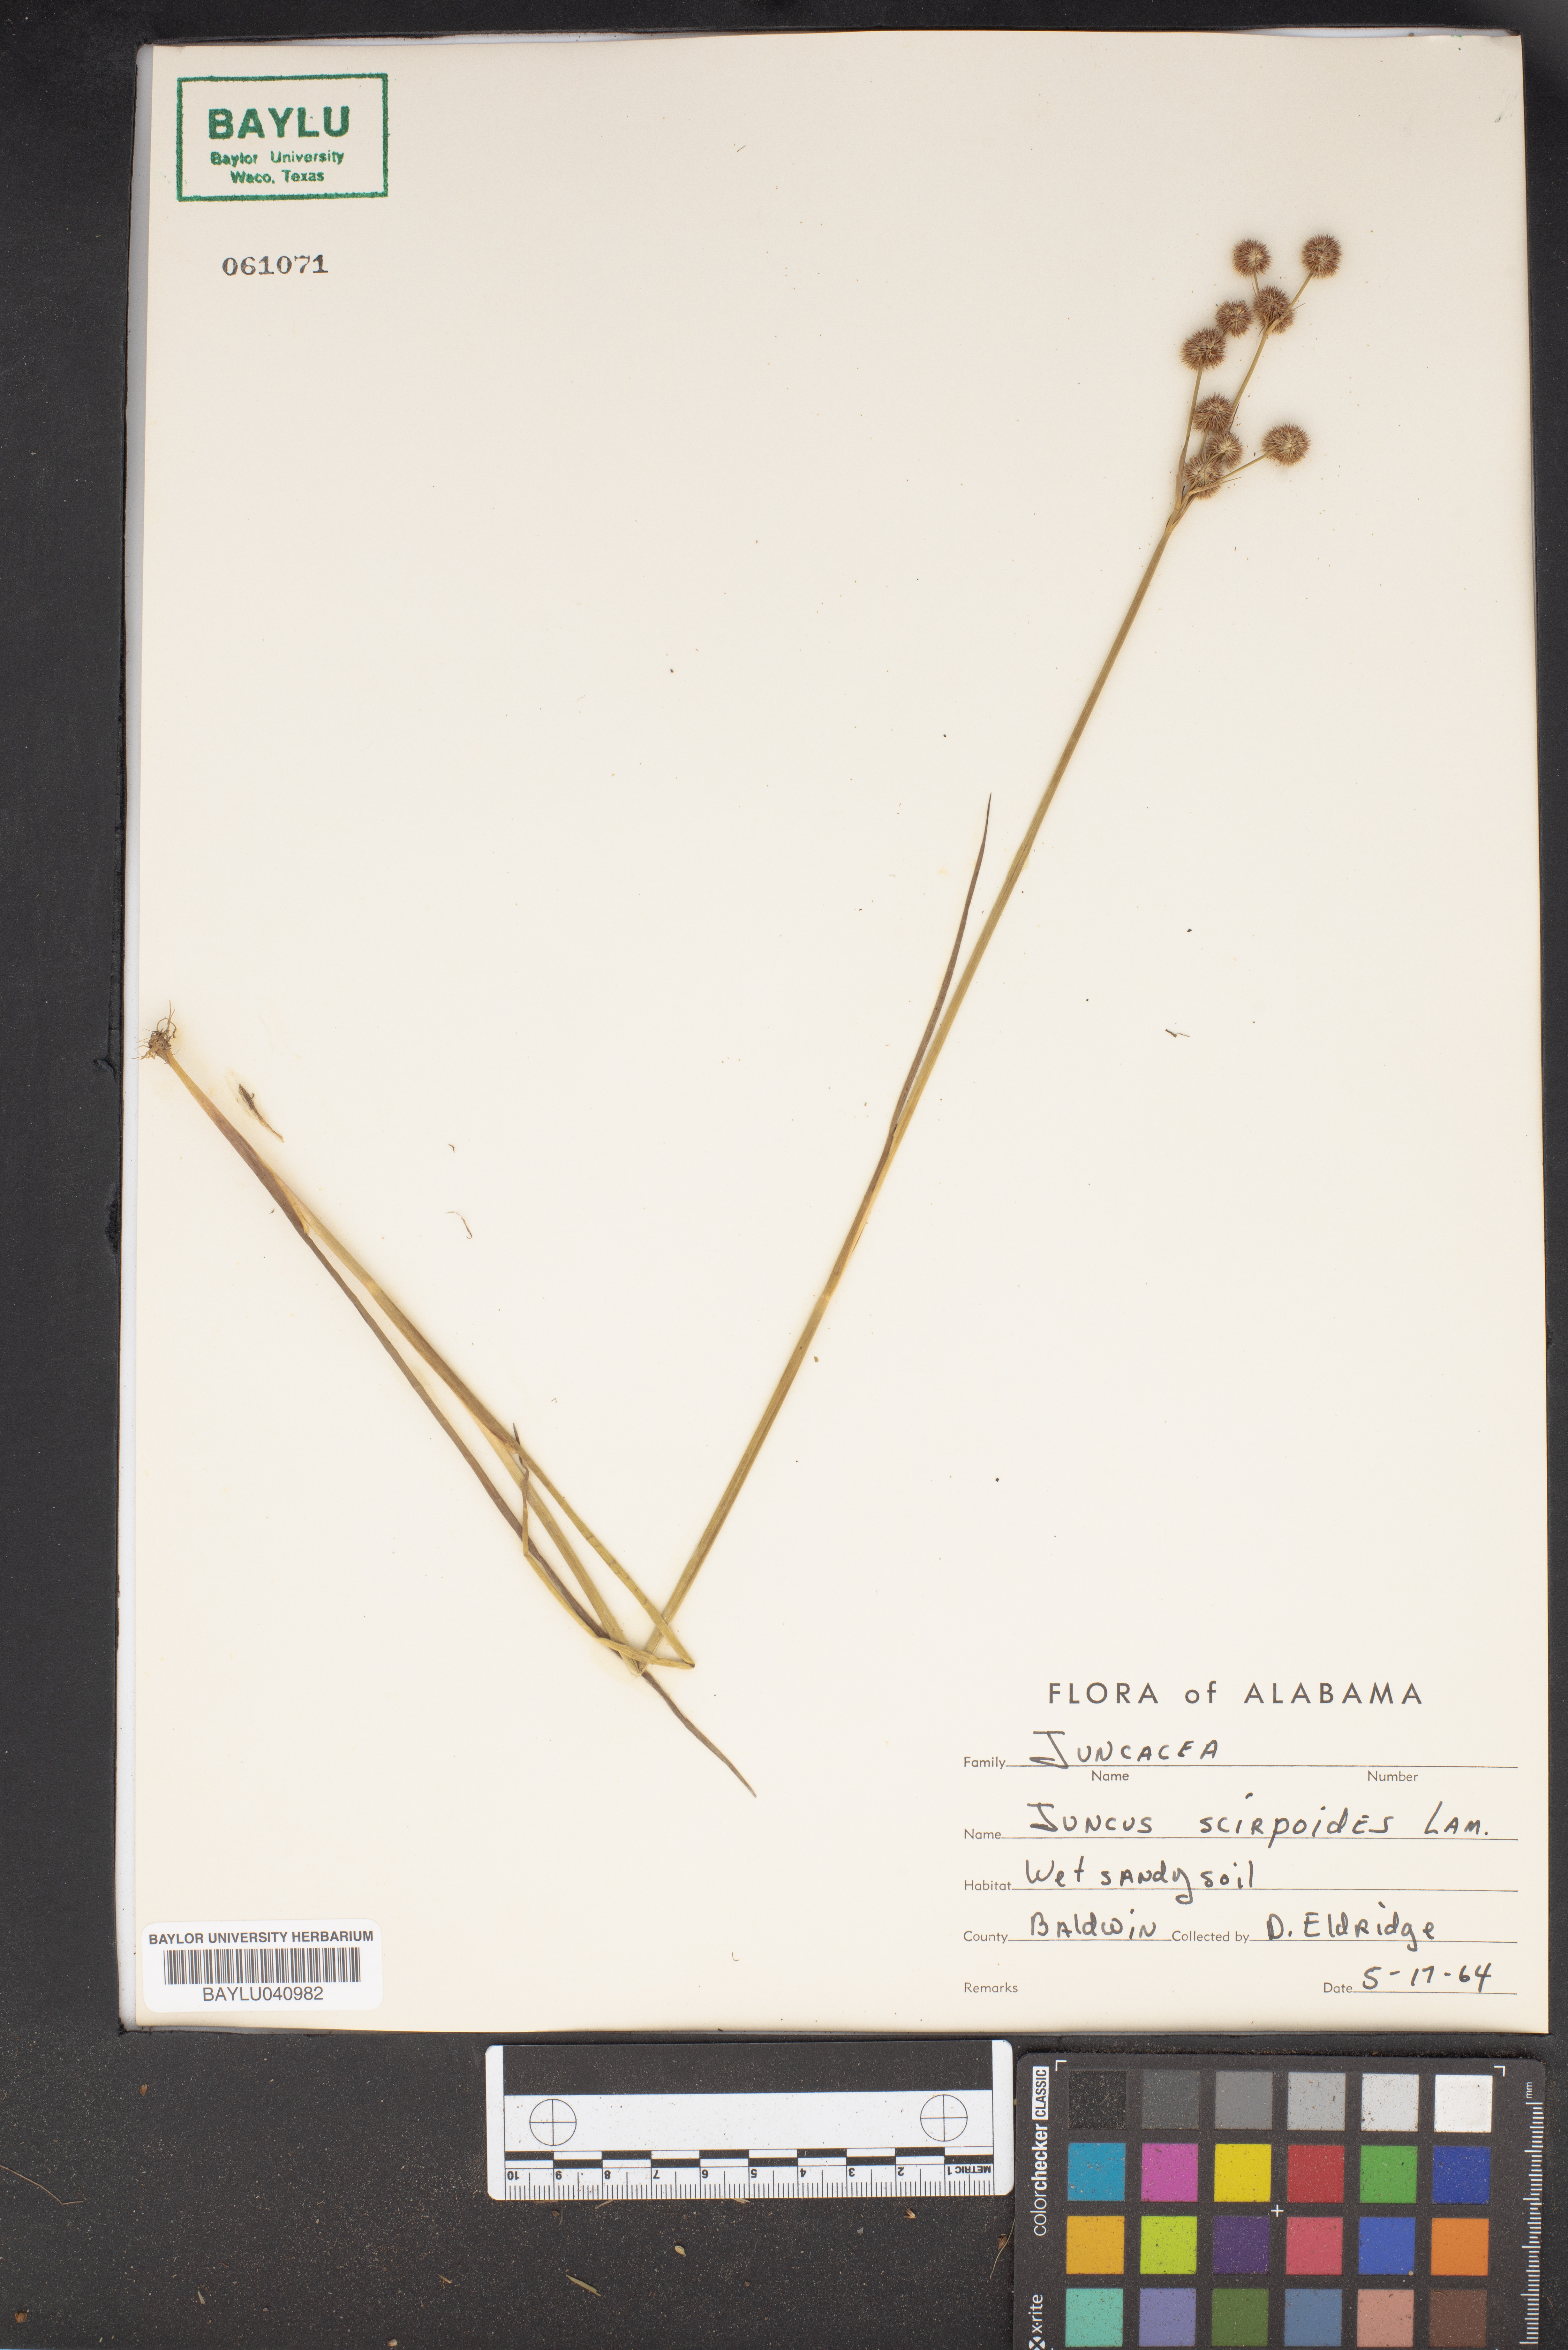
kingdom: Plantae
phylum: Tracheophyta
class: Liliopsida
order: Poales
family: Juncaceae
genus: Juncus
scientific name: Juncus scirpoides
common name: Needlepod rush
